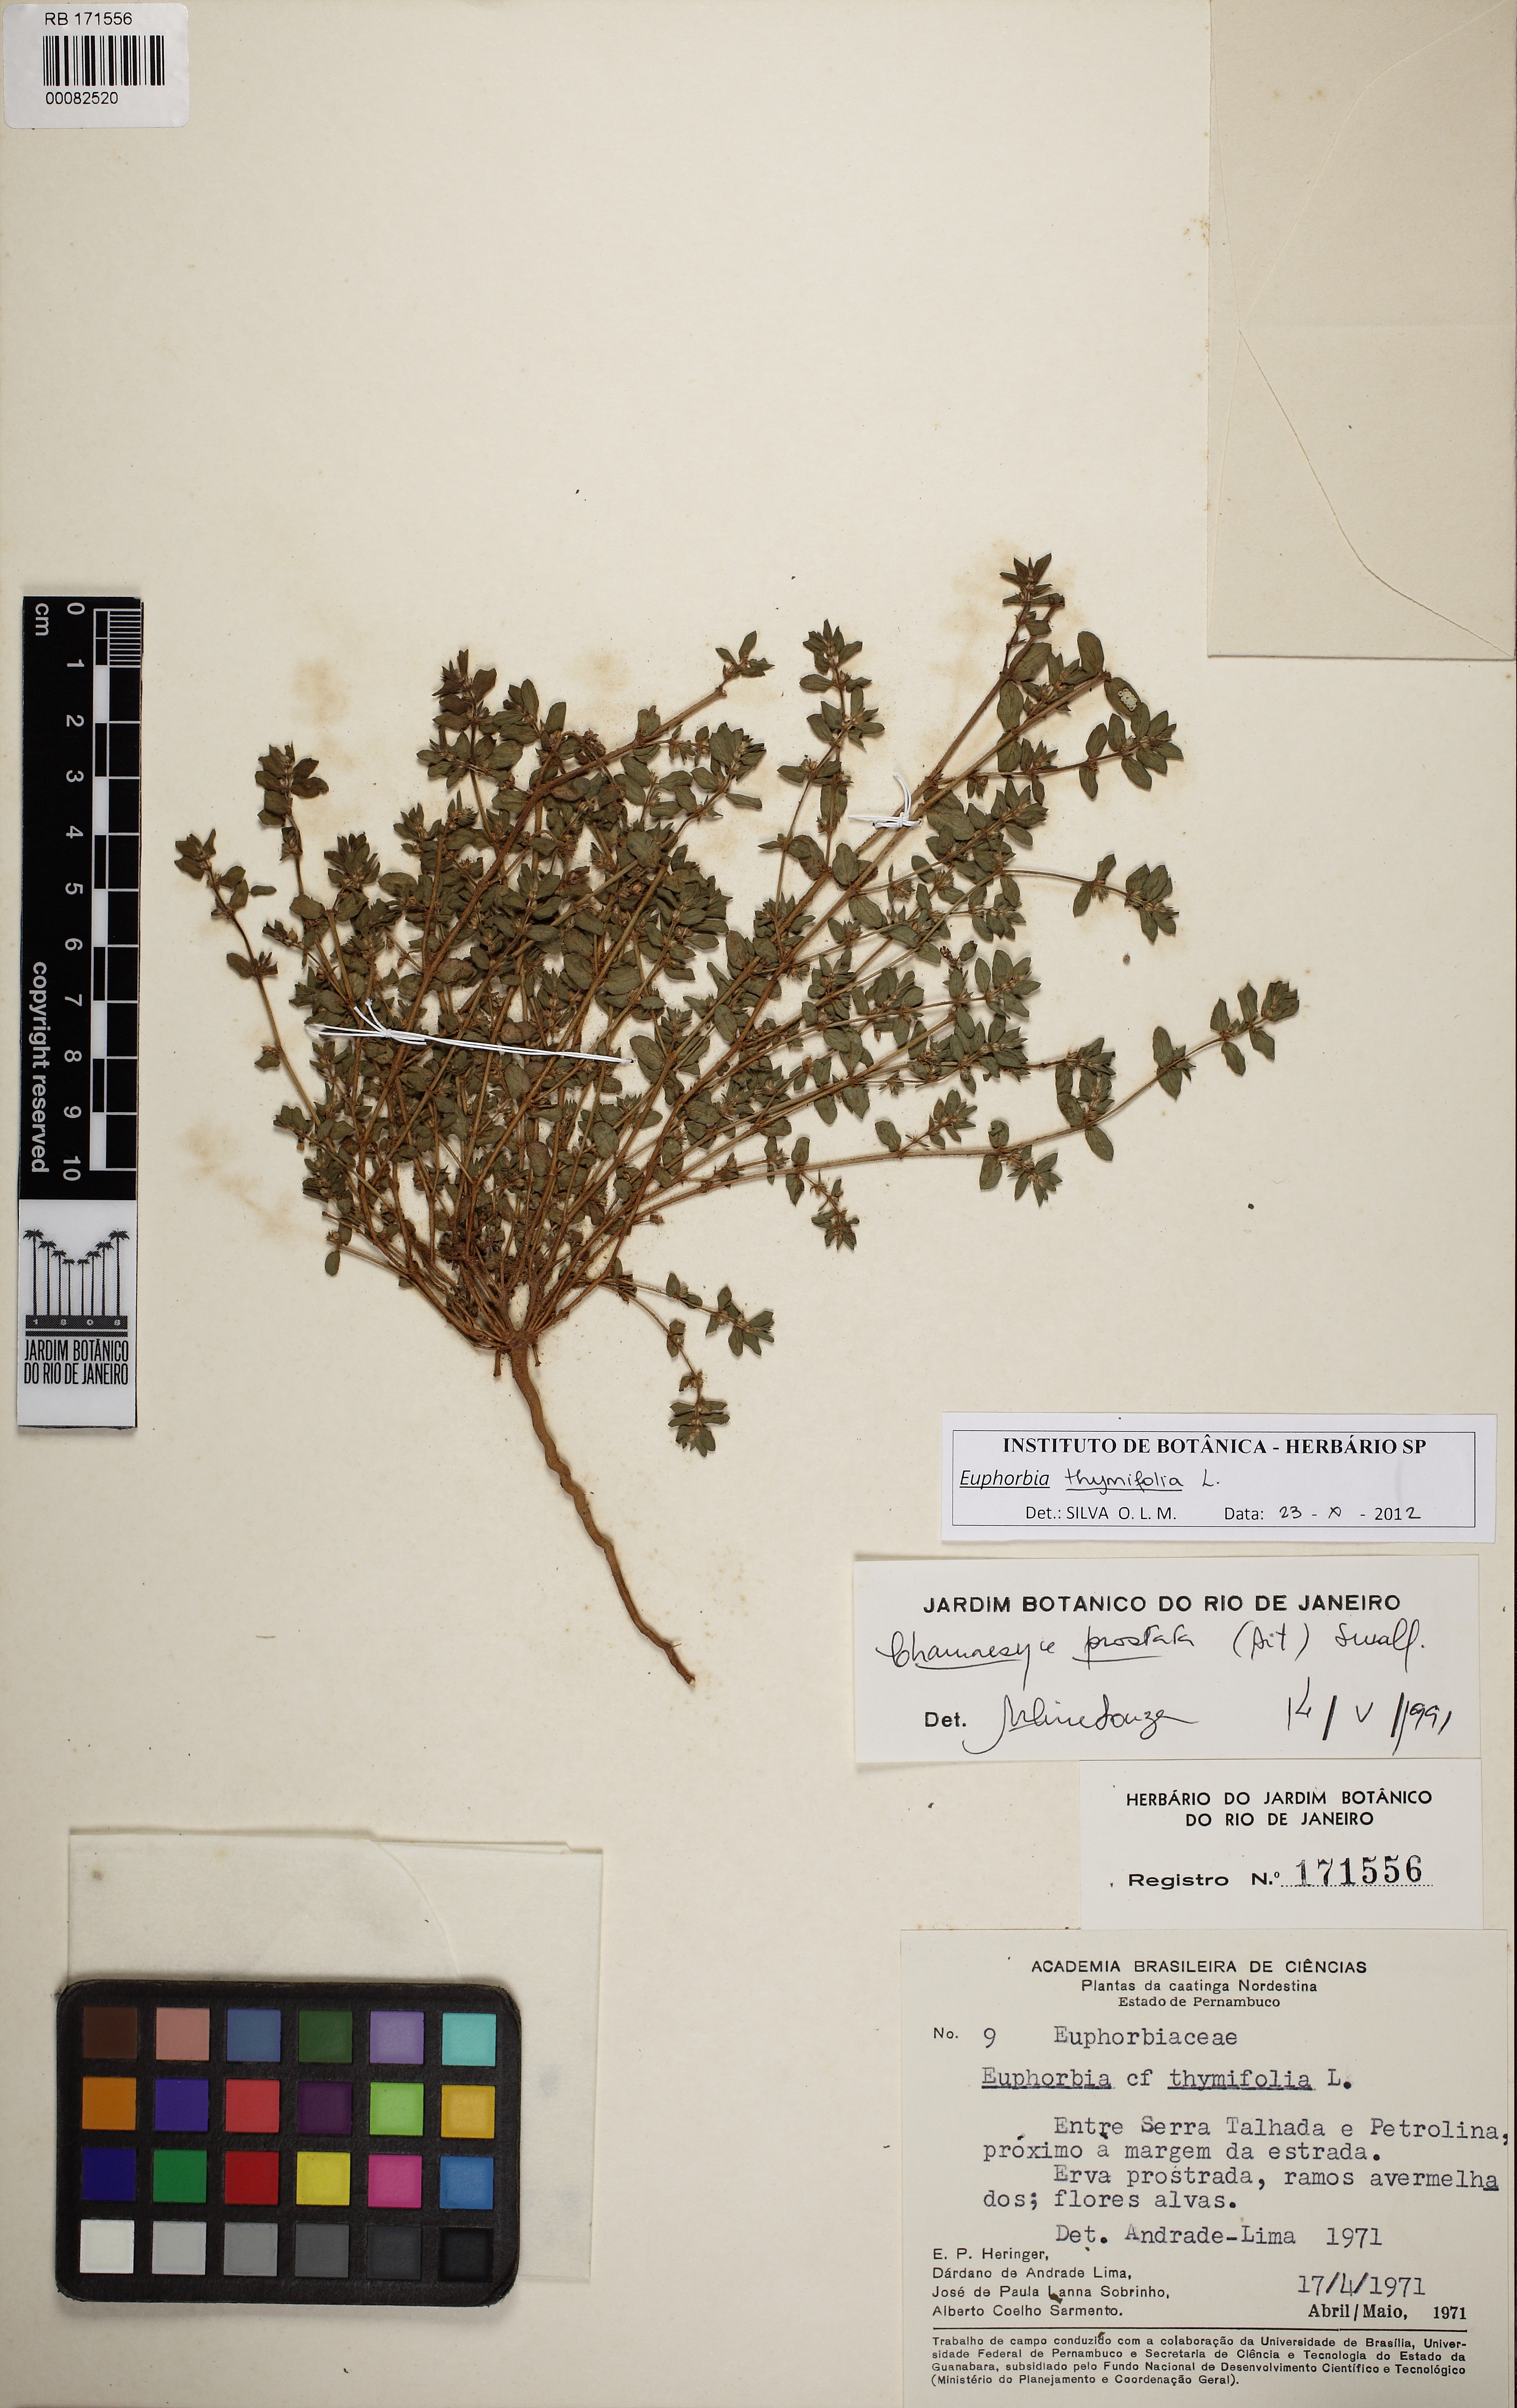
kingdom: Plantae
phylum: Tracheophyta
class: Magnoliopsida
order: Malpighiales
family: Euphorbiaceae
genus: Euphorbia
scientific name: Euphorbia thymifolia
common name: Gulf sandmat
